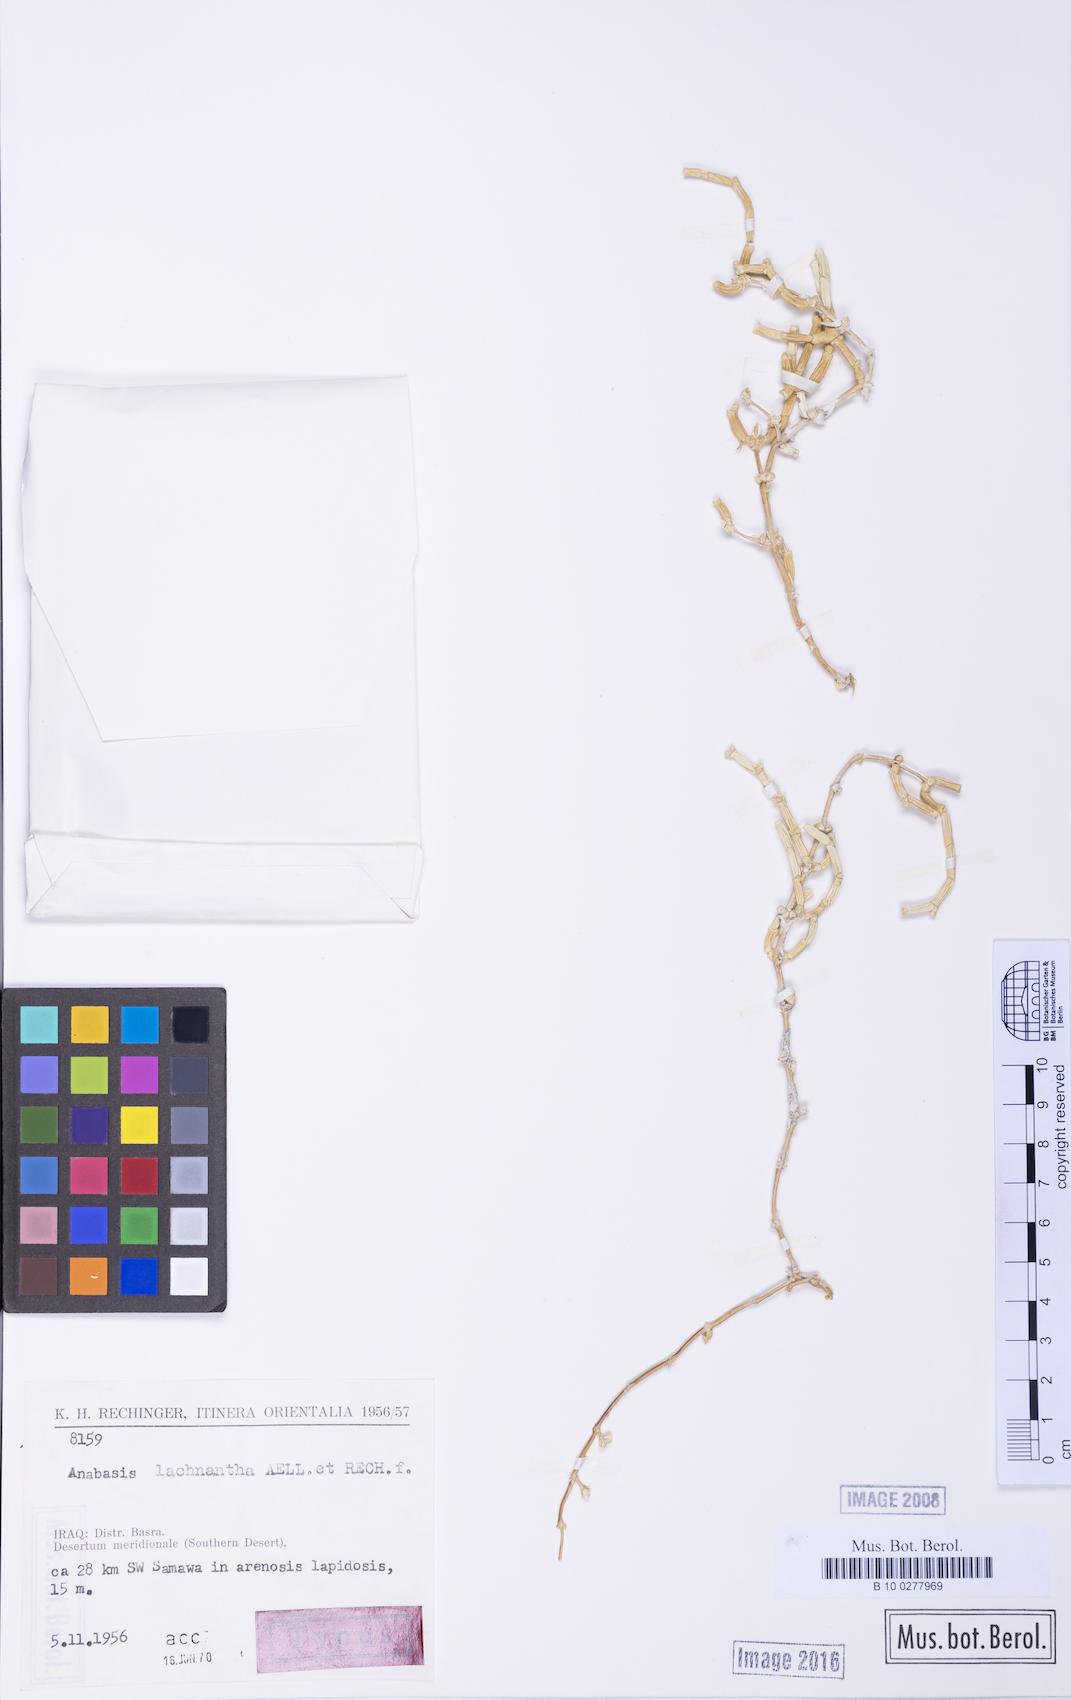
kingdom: Plantae
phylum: Tracheophyta
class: Magnoliopsida
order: Caryophyllales
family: Amaranthaceae
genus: Anabasis
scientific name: Anabasis lachnantha
